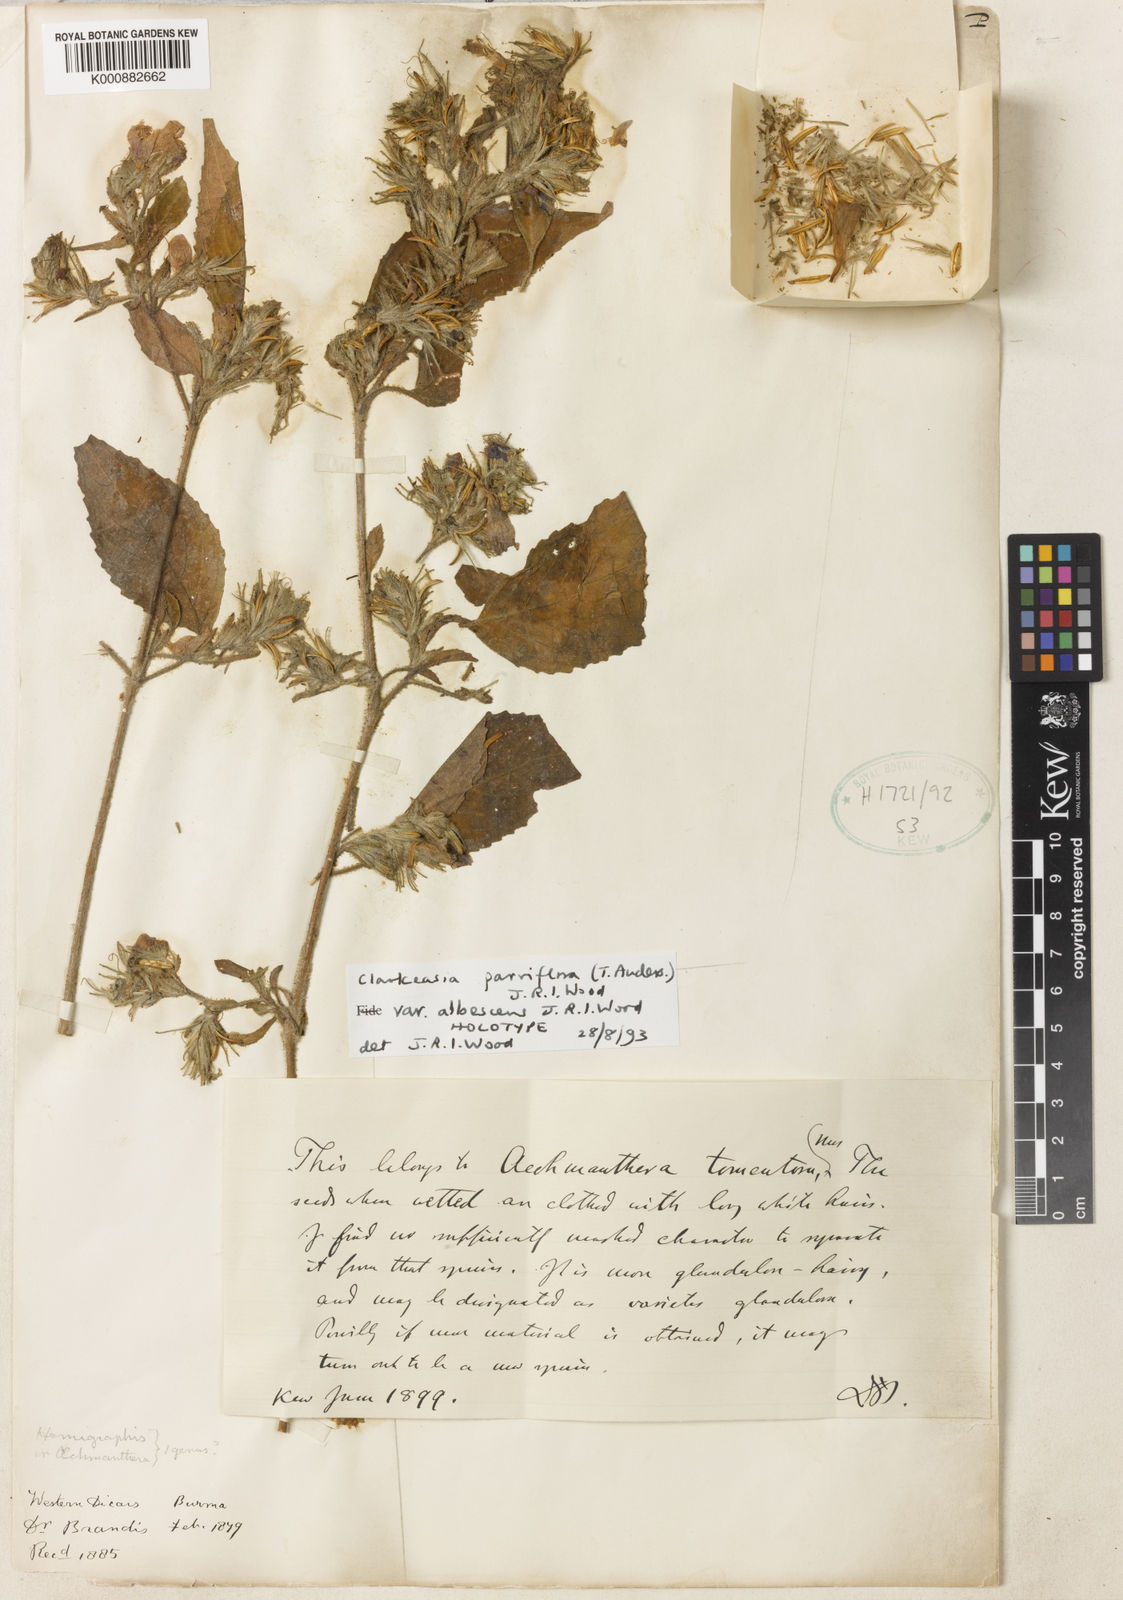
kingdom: Plantae
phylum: Tracheophyta
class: Magnoliopsida
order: Lamiales
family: Acanthaceae
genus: Strobilanthes
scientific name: Strobilanthes violifolia
